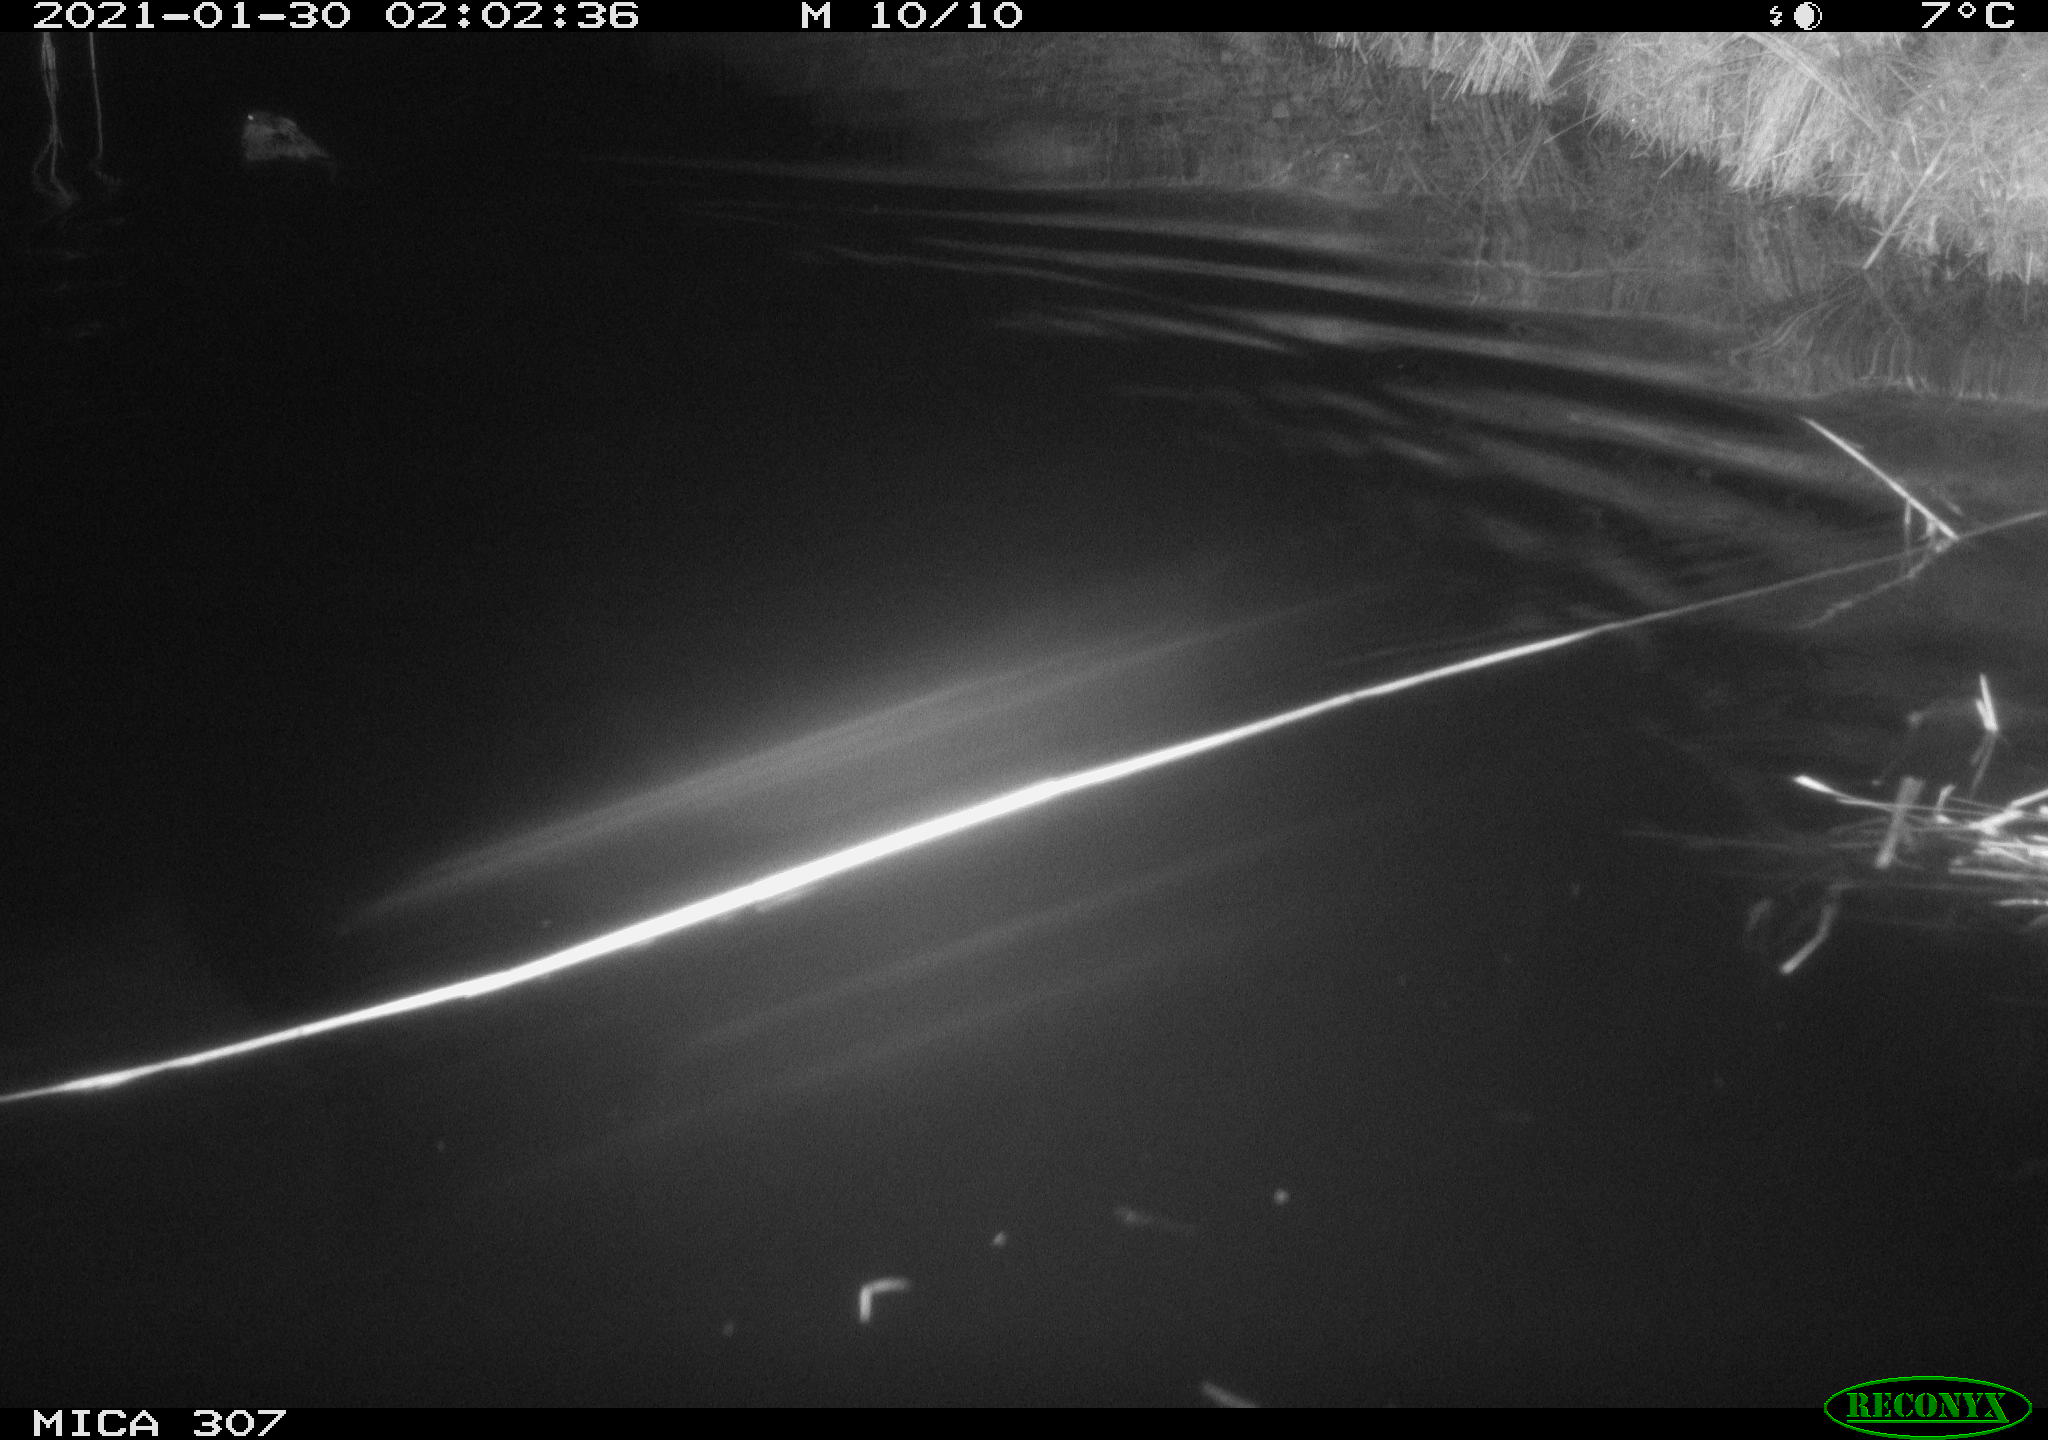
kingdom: Animalia
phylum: Chordata
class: Mammalia
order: Rodentia
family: Cricetidae
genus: Ondatra
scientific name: Ondatra zibethicus
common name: Muskrat
